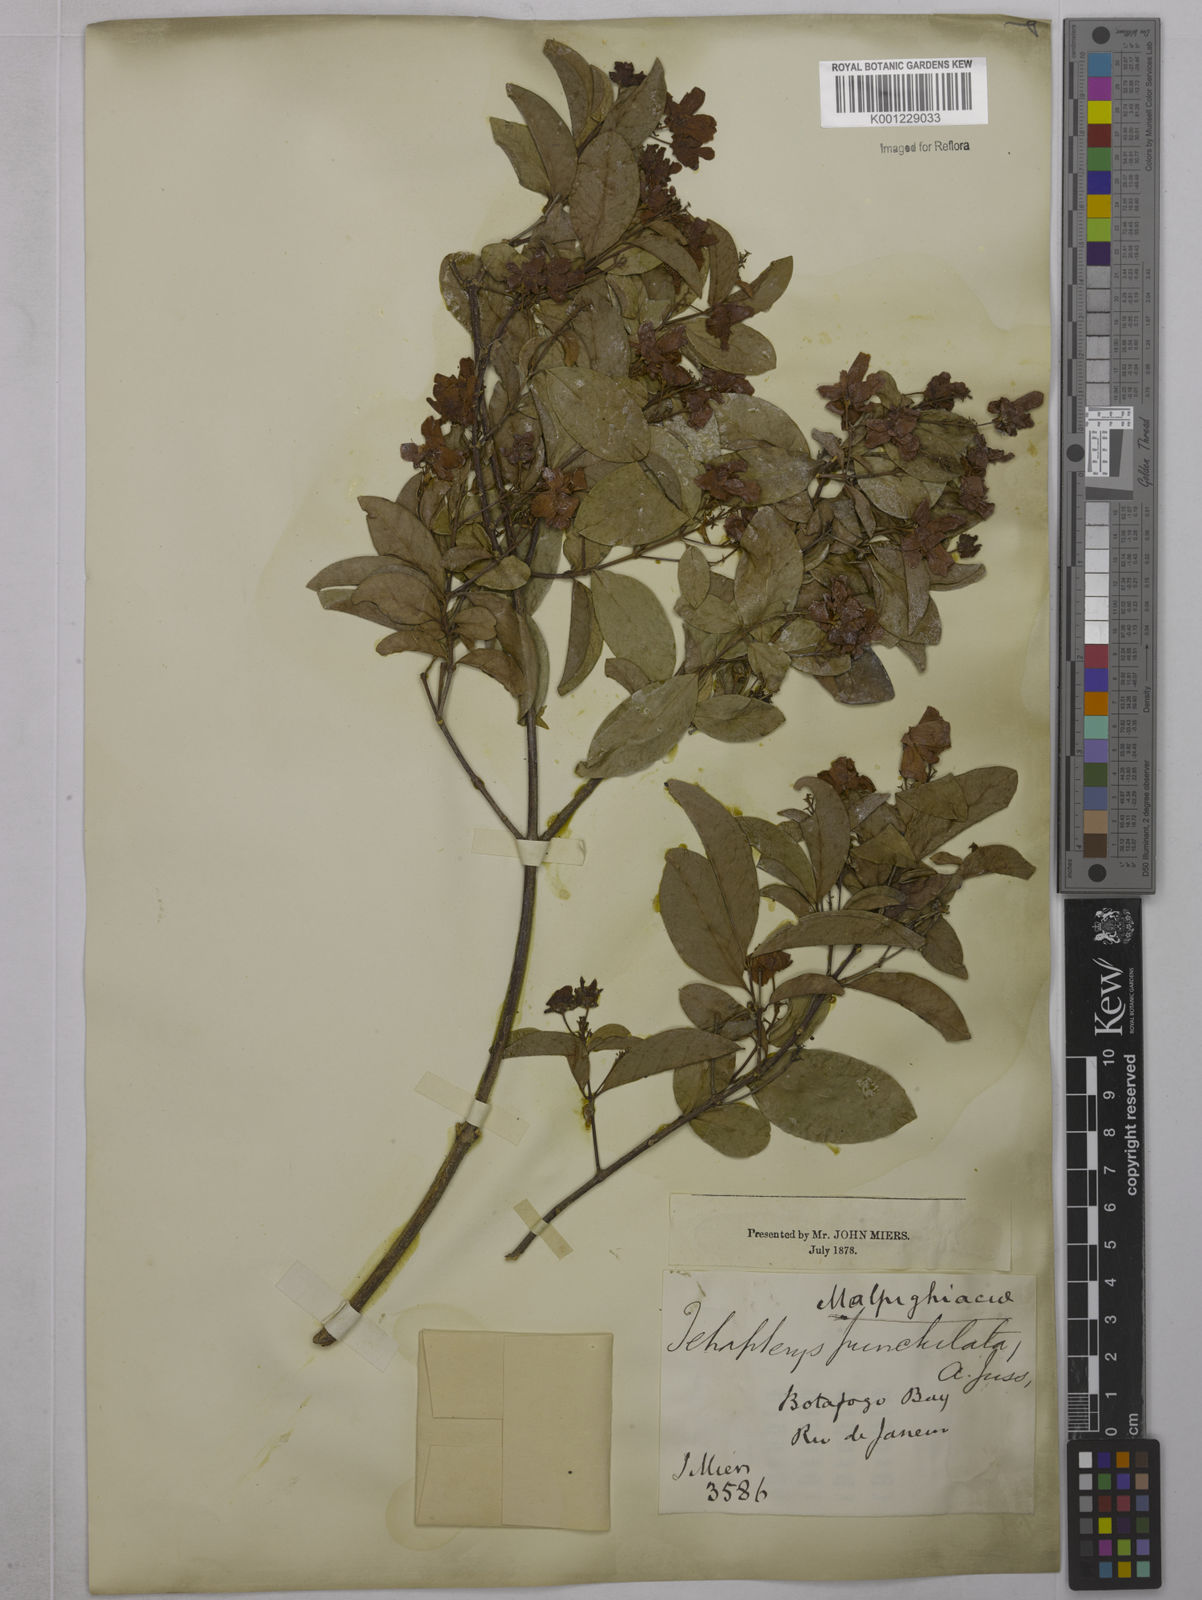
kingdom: Plantae
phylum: Tracheophyta
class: Magnoliopsida
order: Malpighiales
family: Malpighiaceae
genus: Niedenzuella
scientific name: Niedenzuella acutifolia
